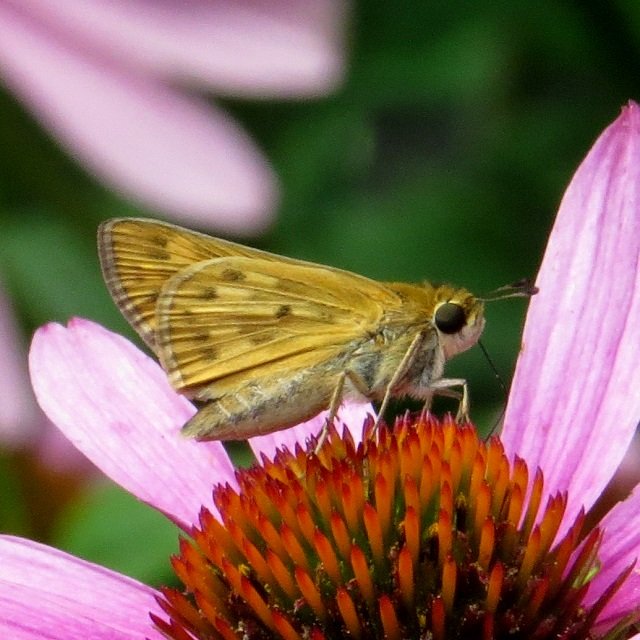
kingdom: Animalia
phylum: Arthropoda
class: Insecta
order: Lepidoptera
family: Hesperiidae
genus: Hylephila
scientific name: Hylephila phyleus
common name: Fiery Skipper
